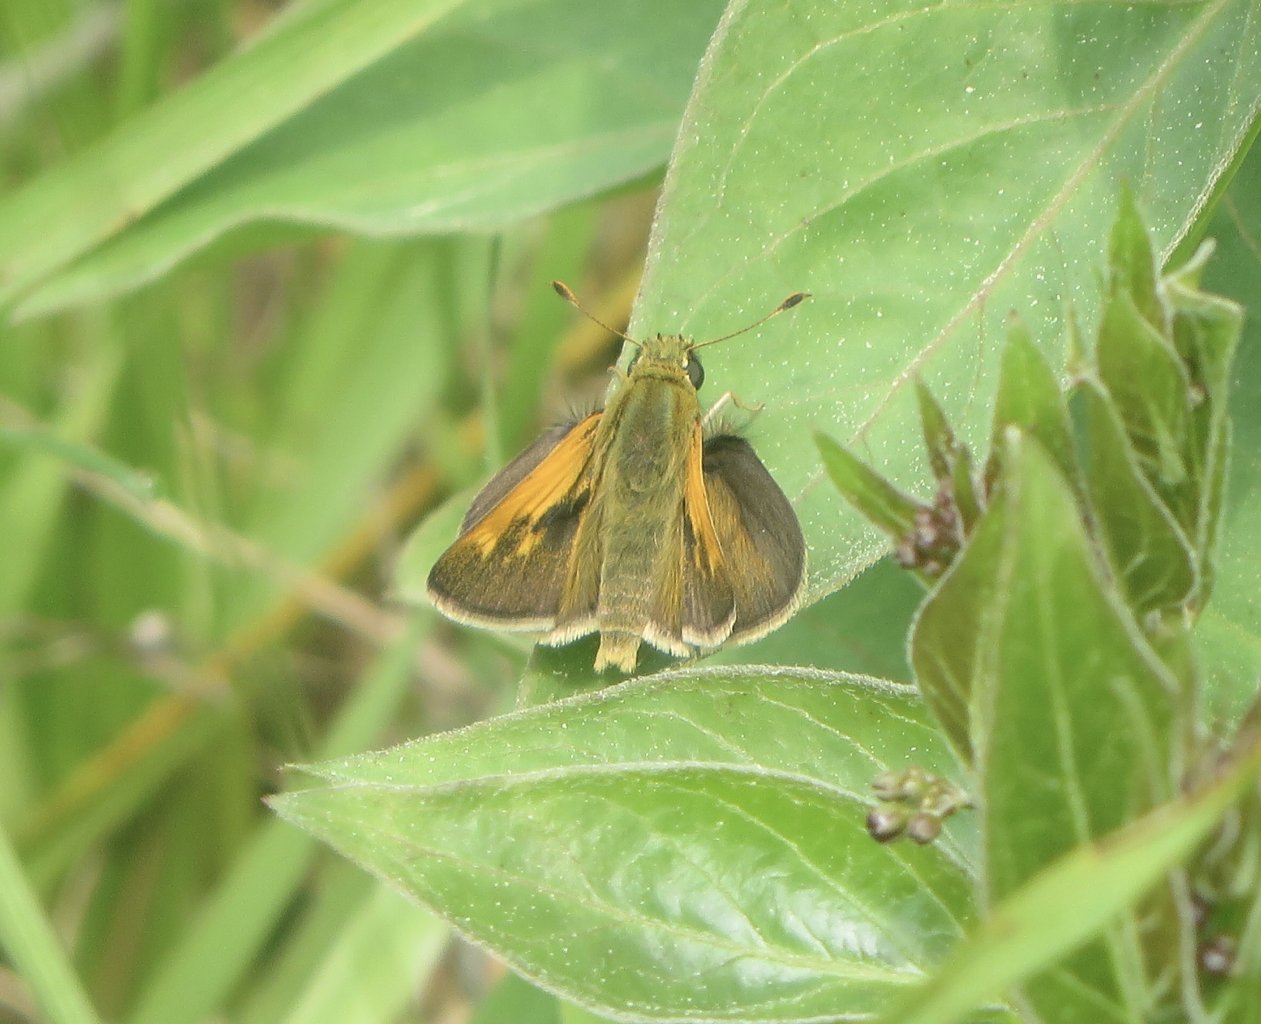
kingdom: Animalia
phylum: Arthropoda
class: Insecta
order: Lepidoptera
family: Hesperiidae
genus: Polites
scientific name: Polites themistocles
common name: Tawny-edged Skipper
